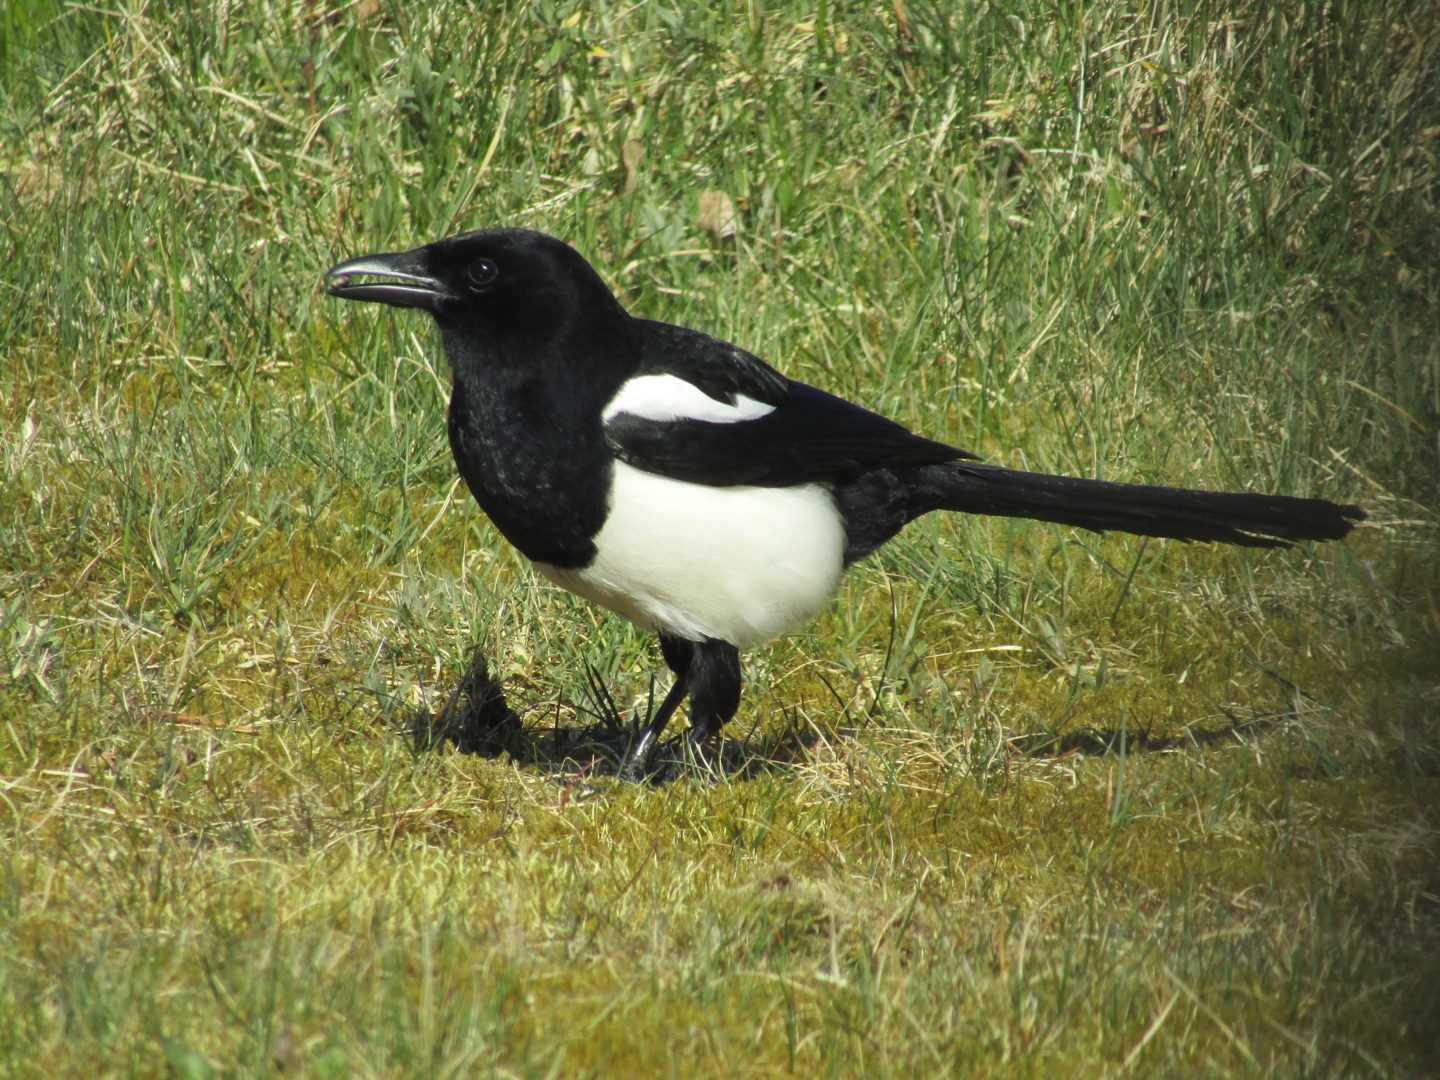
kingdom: Animalia
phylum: Chordata
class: Aves
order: Passeriformes
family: Corvidae
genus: Pica
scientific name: Pica pica
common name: Husskade
